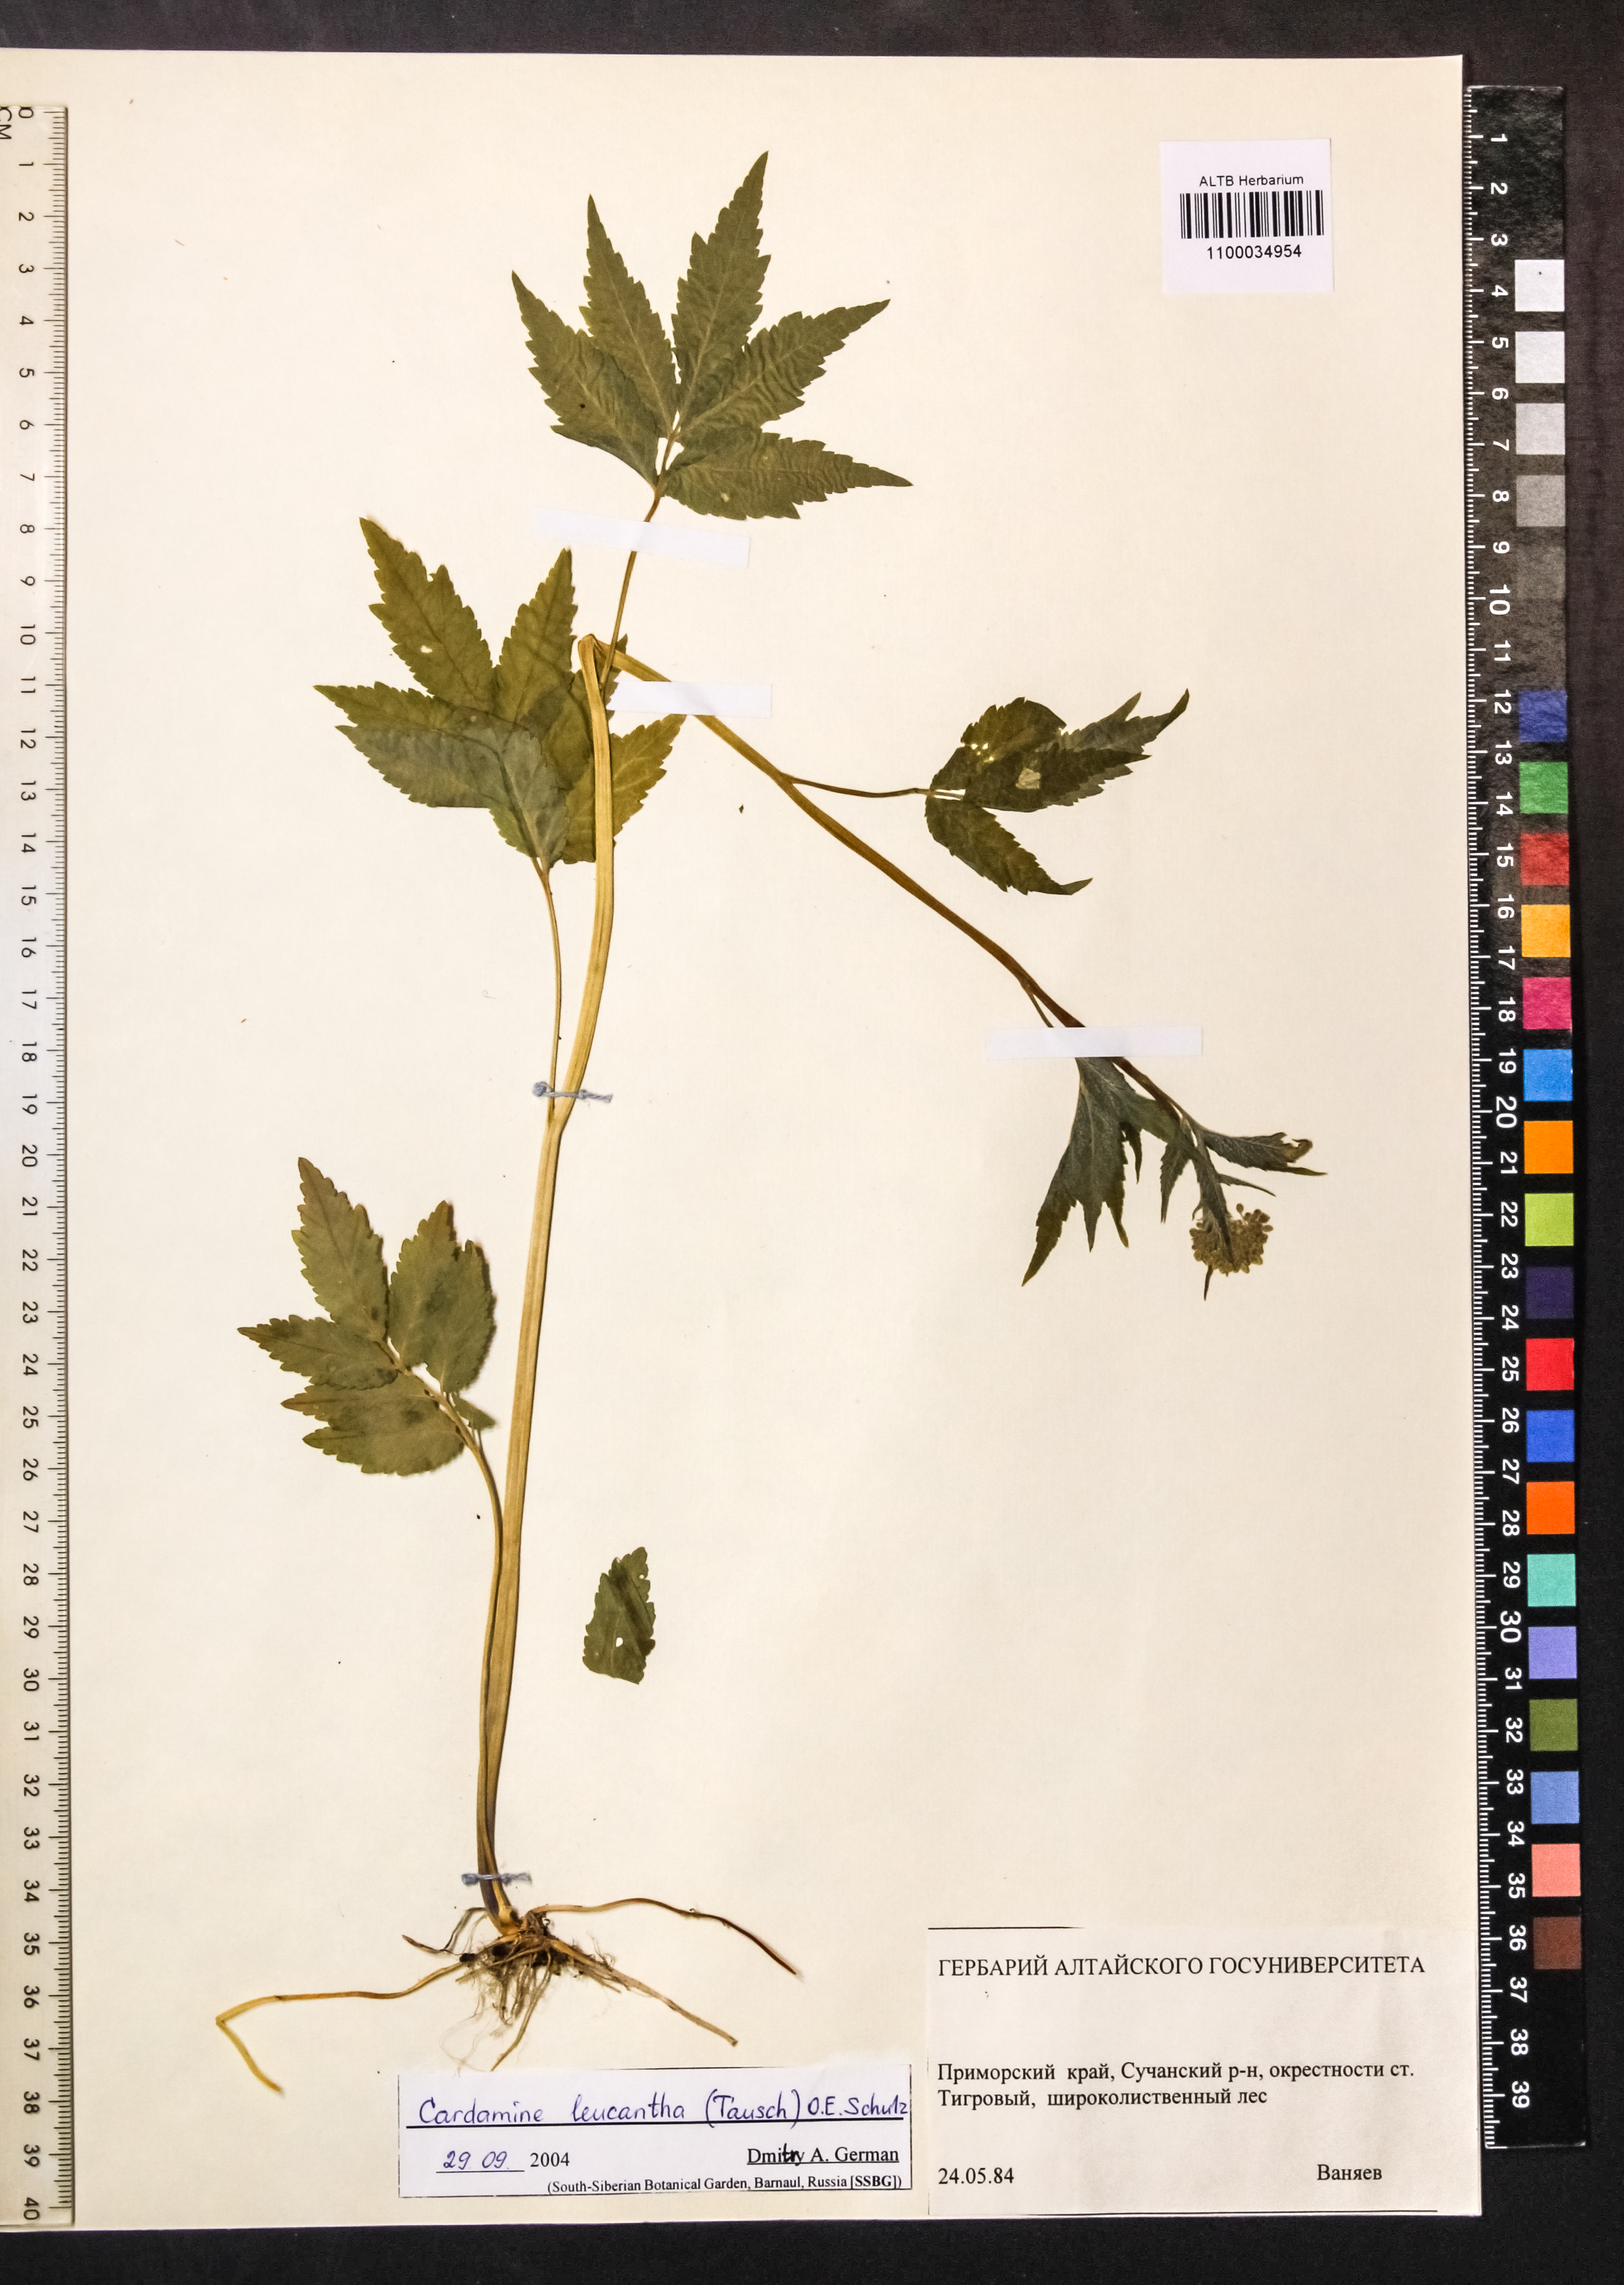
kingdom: Plantae
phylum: Tracheophyta
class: Magnoliopsida
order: Brassicales
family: Brassicaceae
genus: Cardamine
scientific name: Cardamine leucantha
